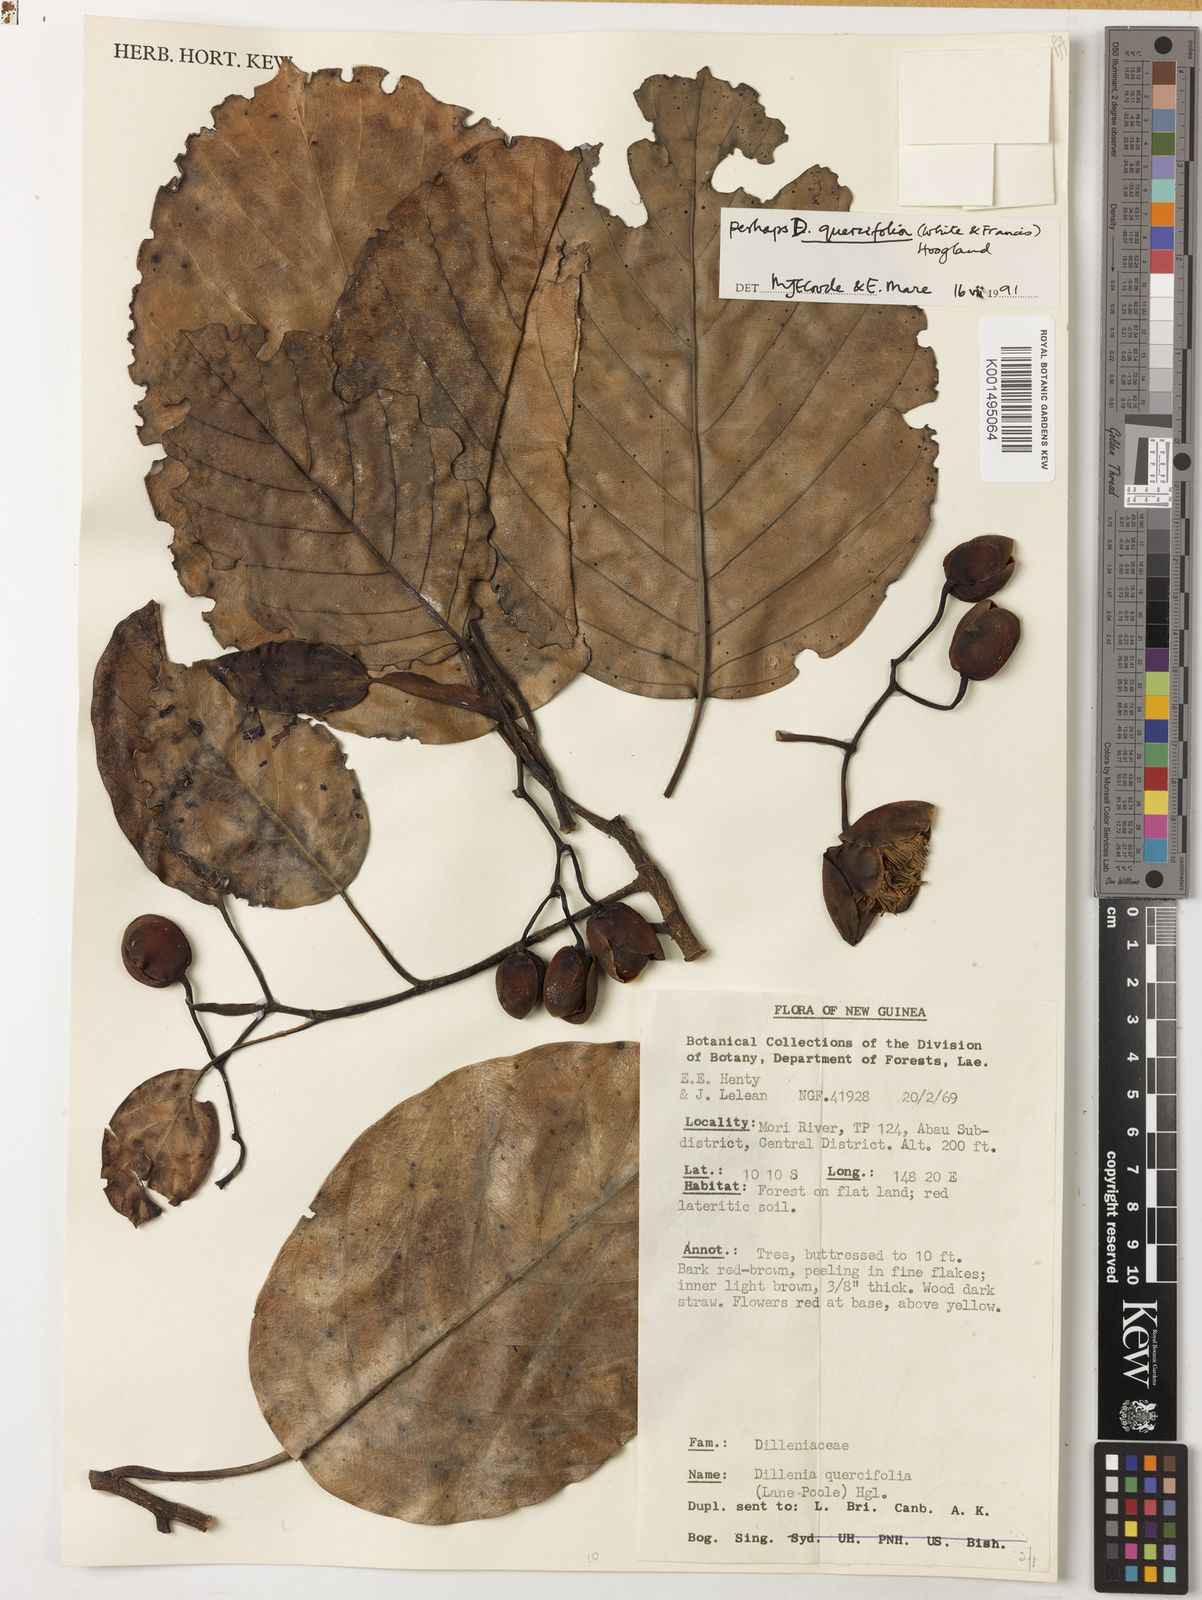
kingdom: Plantae
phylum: Tracheophyta
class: Magnoliopsida
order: Dilleniales
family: Dilleniaceae
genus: Dillenia
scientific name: Dillenia quercifolia
